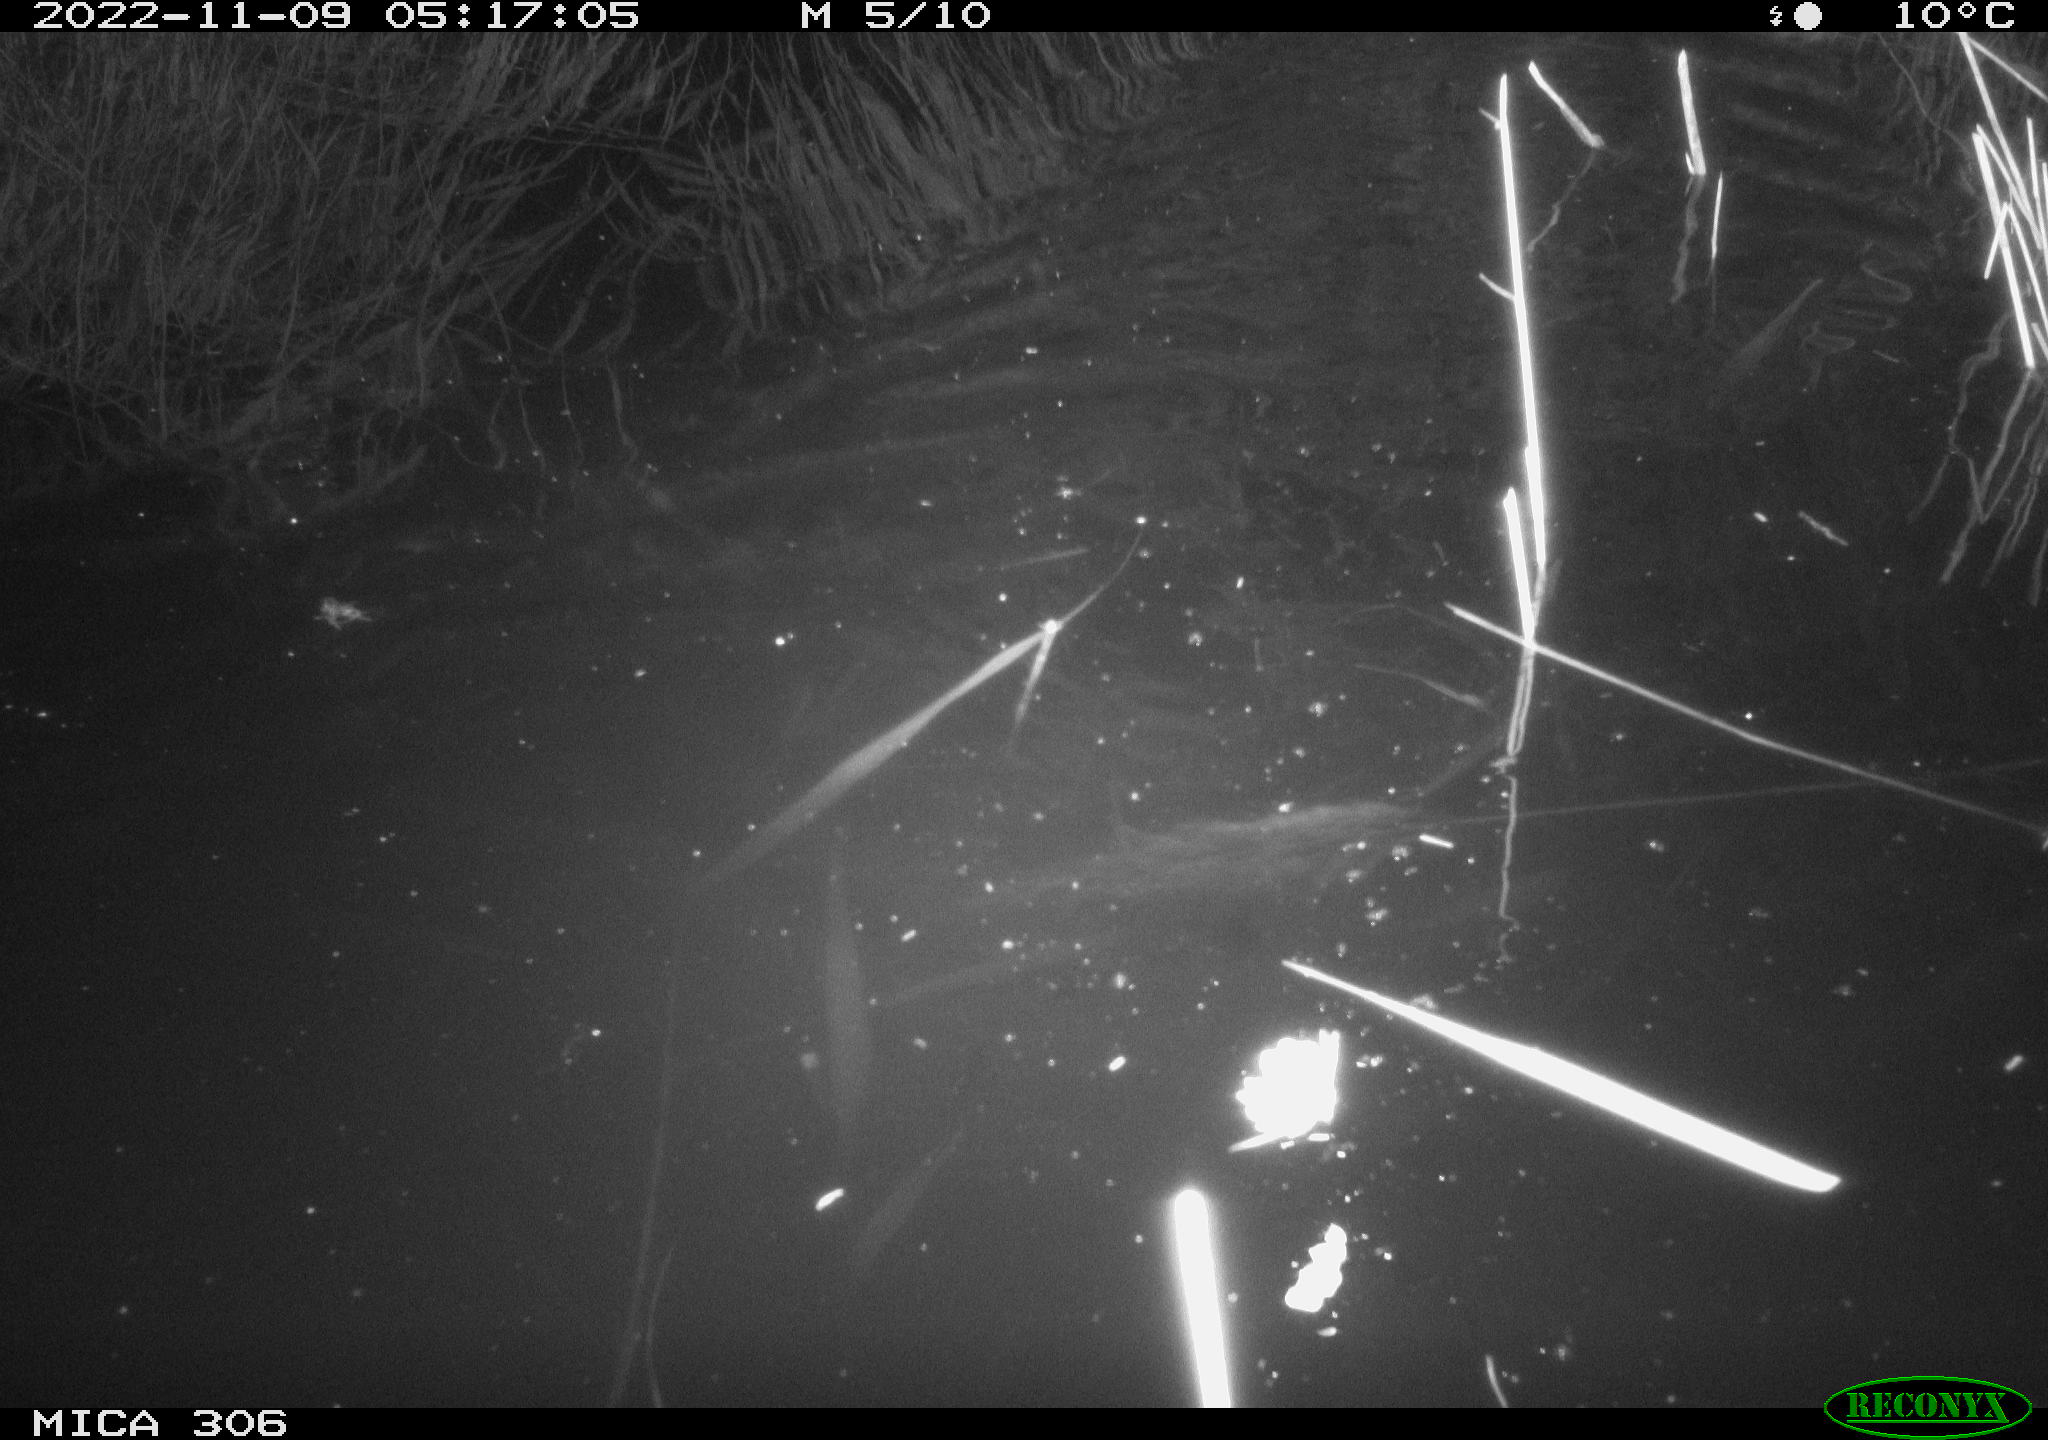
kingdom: Animalia
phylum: Chordata
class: Mammalia
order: Rodentia
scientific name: Rodentia
